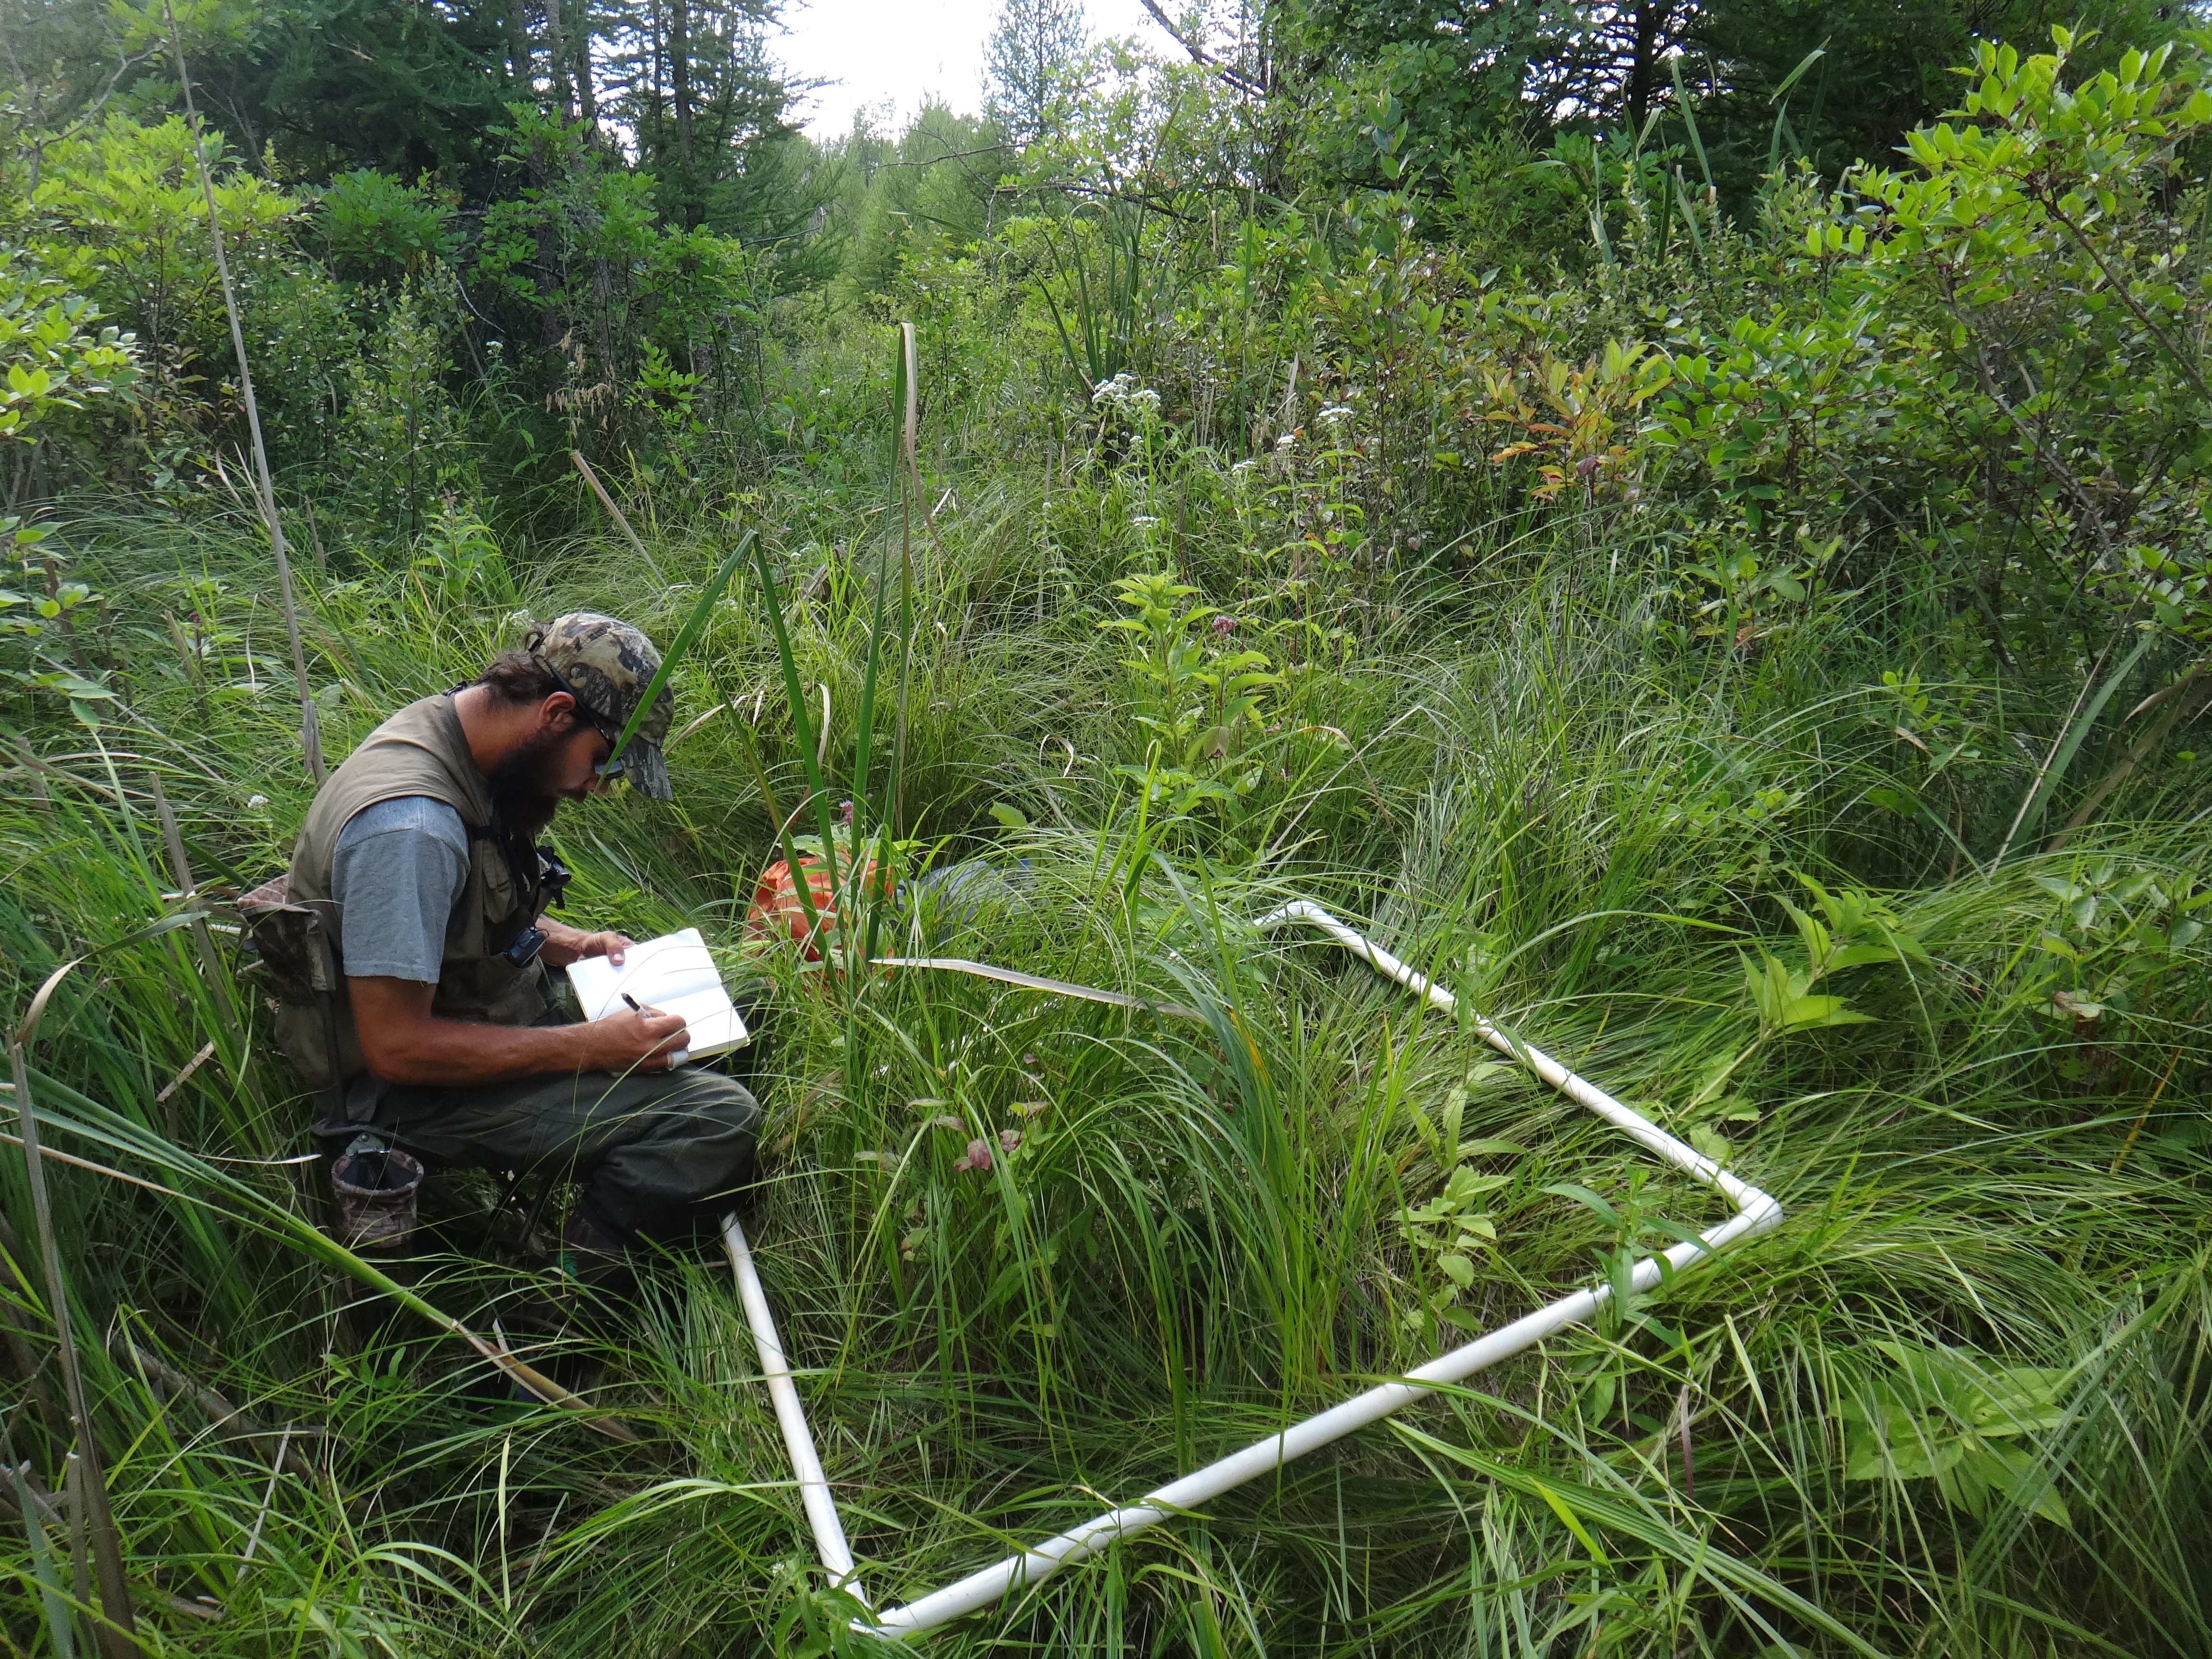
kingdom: Plantae
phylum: Tracheophyta
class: Liliopsida
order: Poales
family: Poaceae
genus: Bromus
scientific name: Bromus ciliatus
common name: Fringe brome
